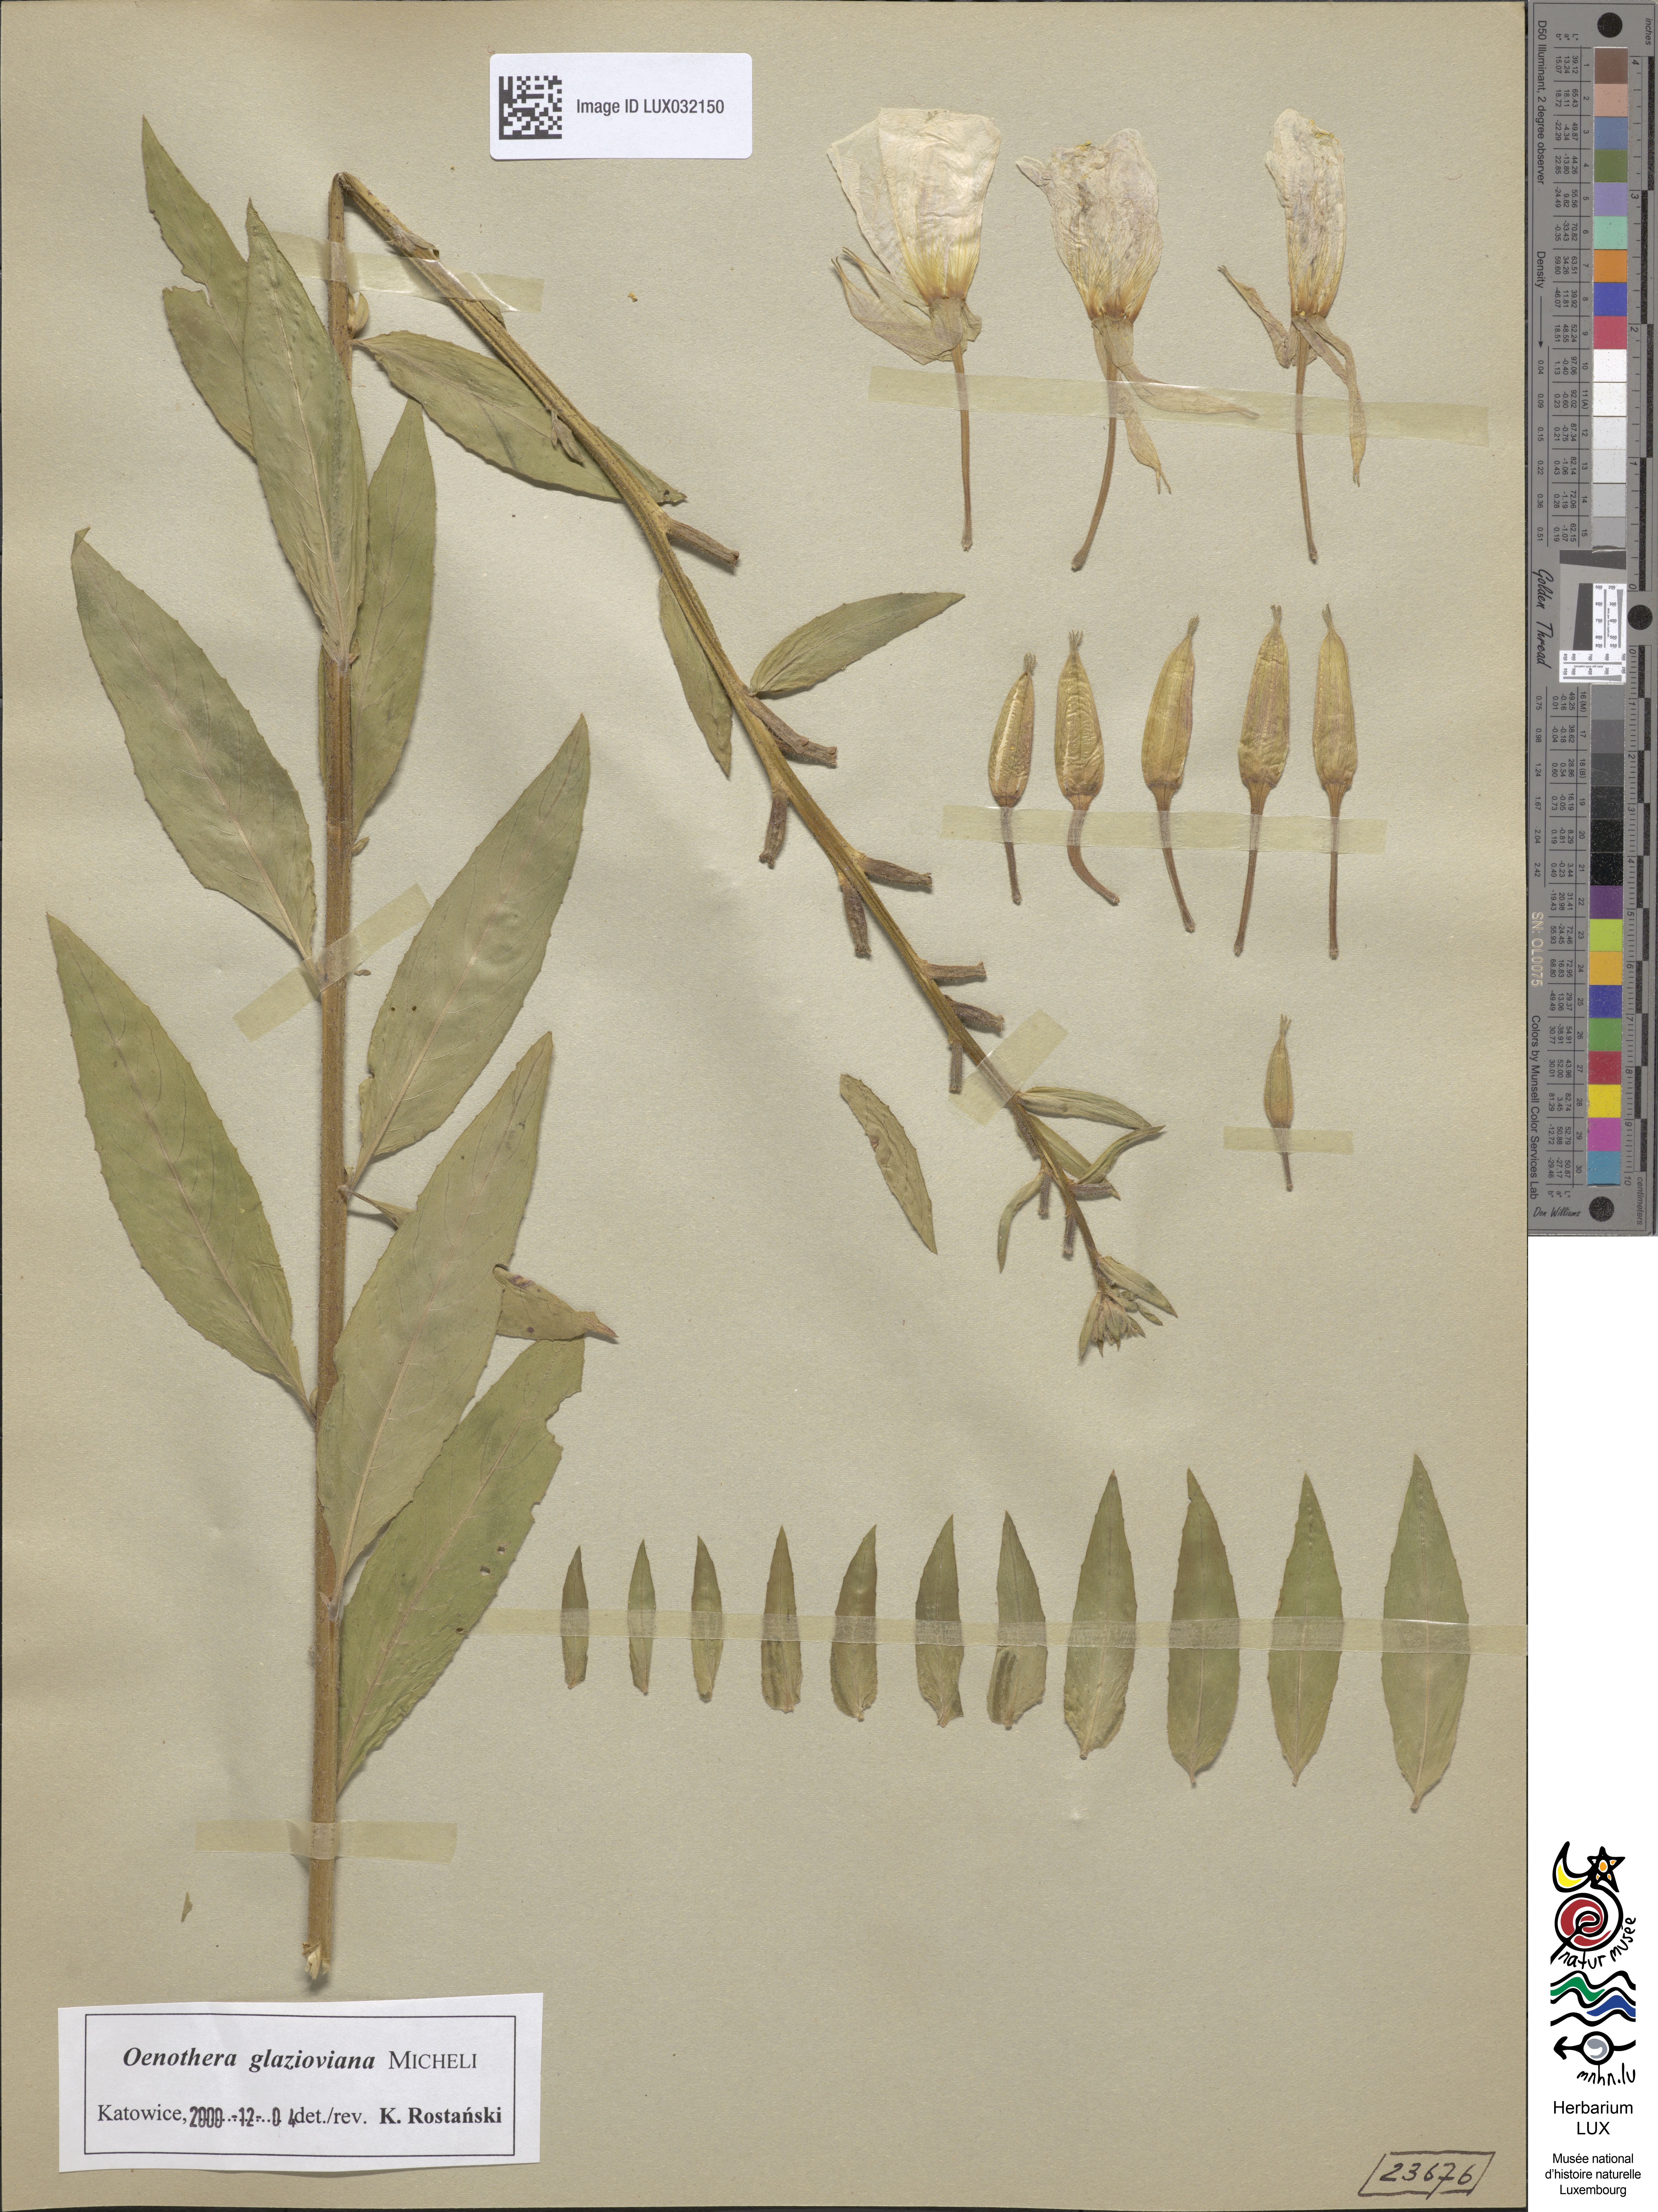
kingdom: Plantae
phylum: Tracheophyta
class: Magnoliopsida
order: Myrtales
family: Onagraceae
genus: Oenothera
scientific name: Oenothera glazioviana
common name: Large-flowered evening-primrose
